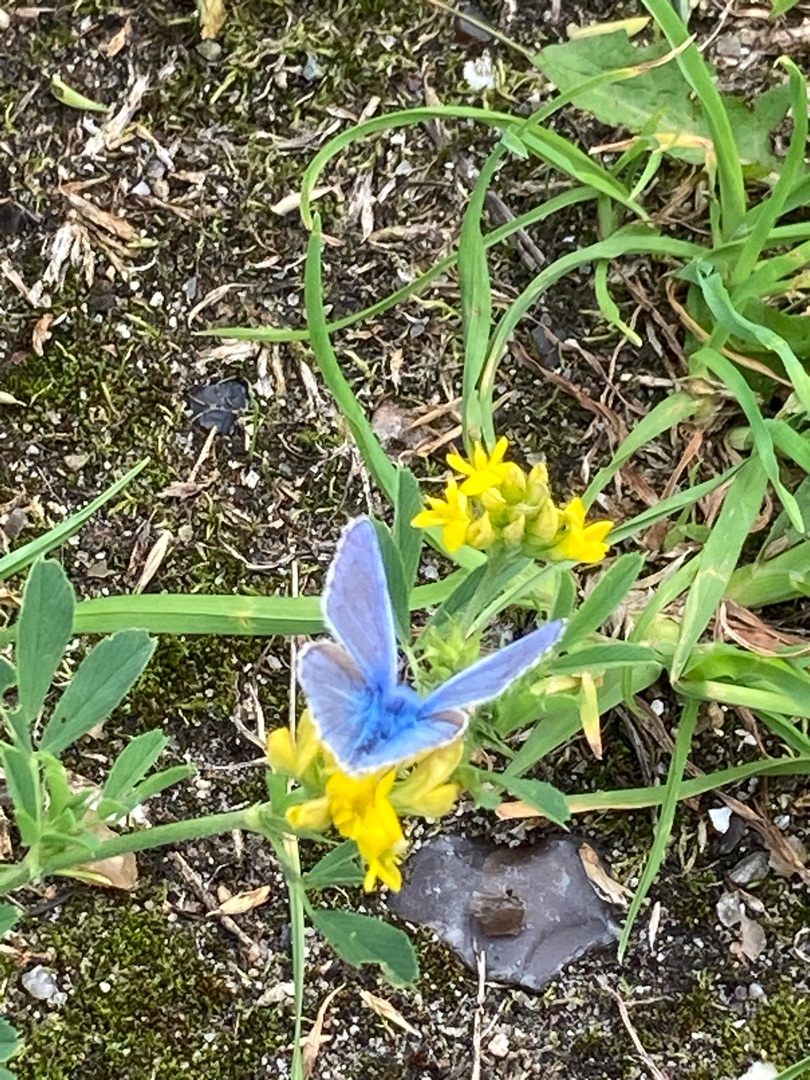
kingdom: Animalia
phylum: Arthropoda
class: Insecta
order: Lepidoptera
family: Lycaenidae
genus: Polyommatus
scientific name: Polyommatus icarus
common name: Almindelig blåfugl
